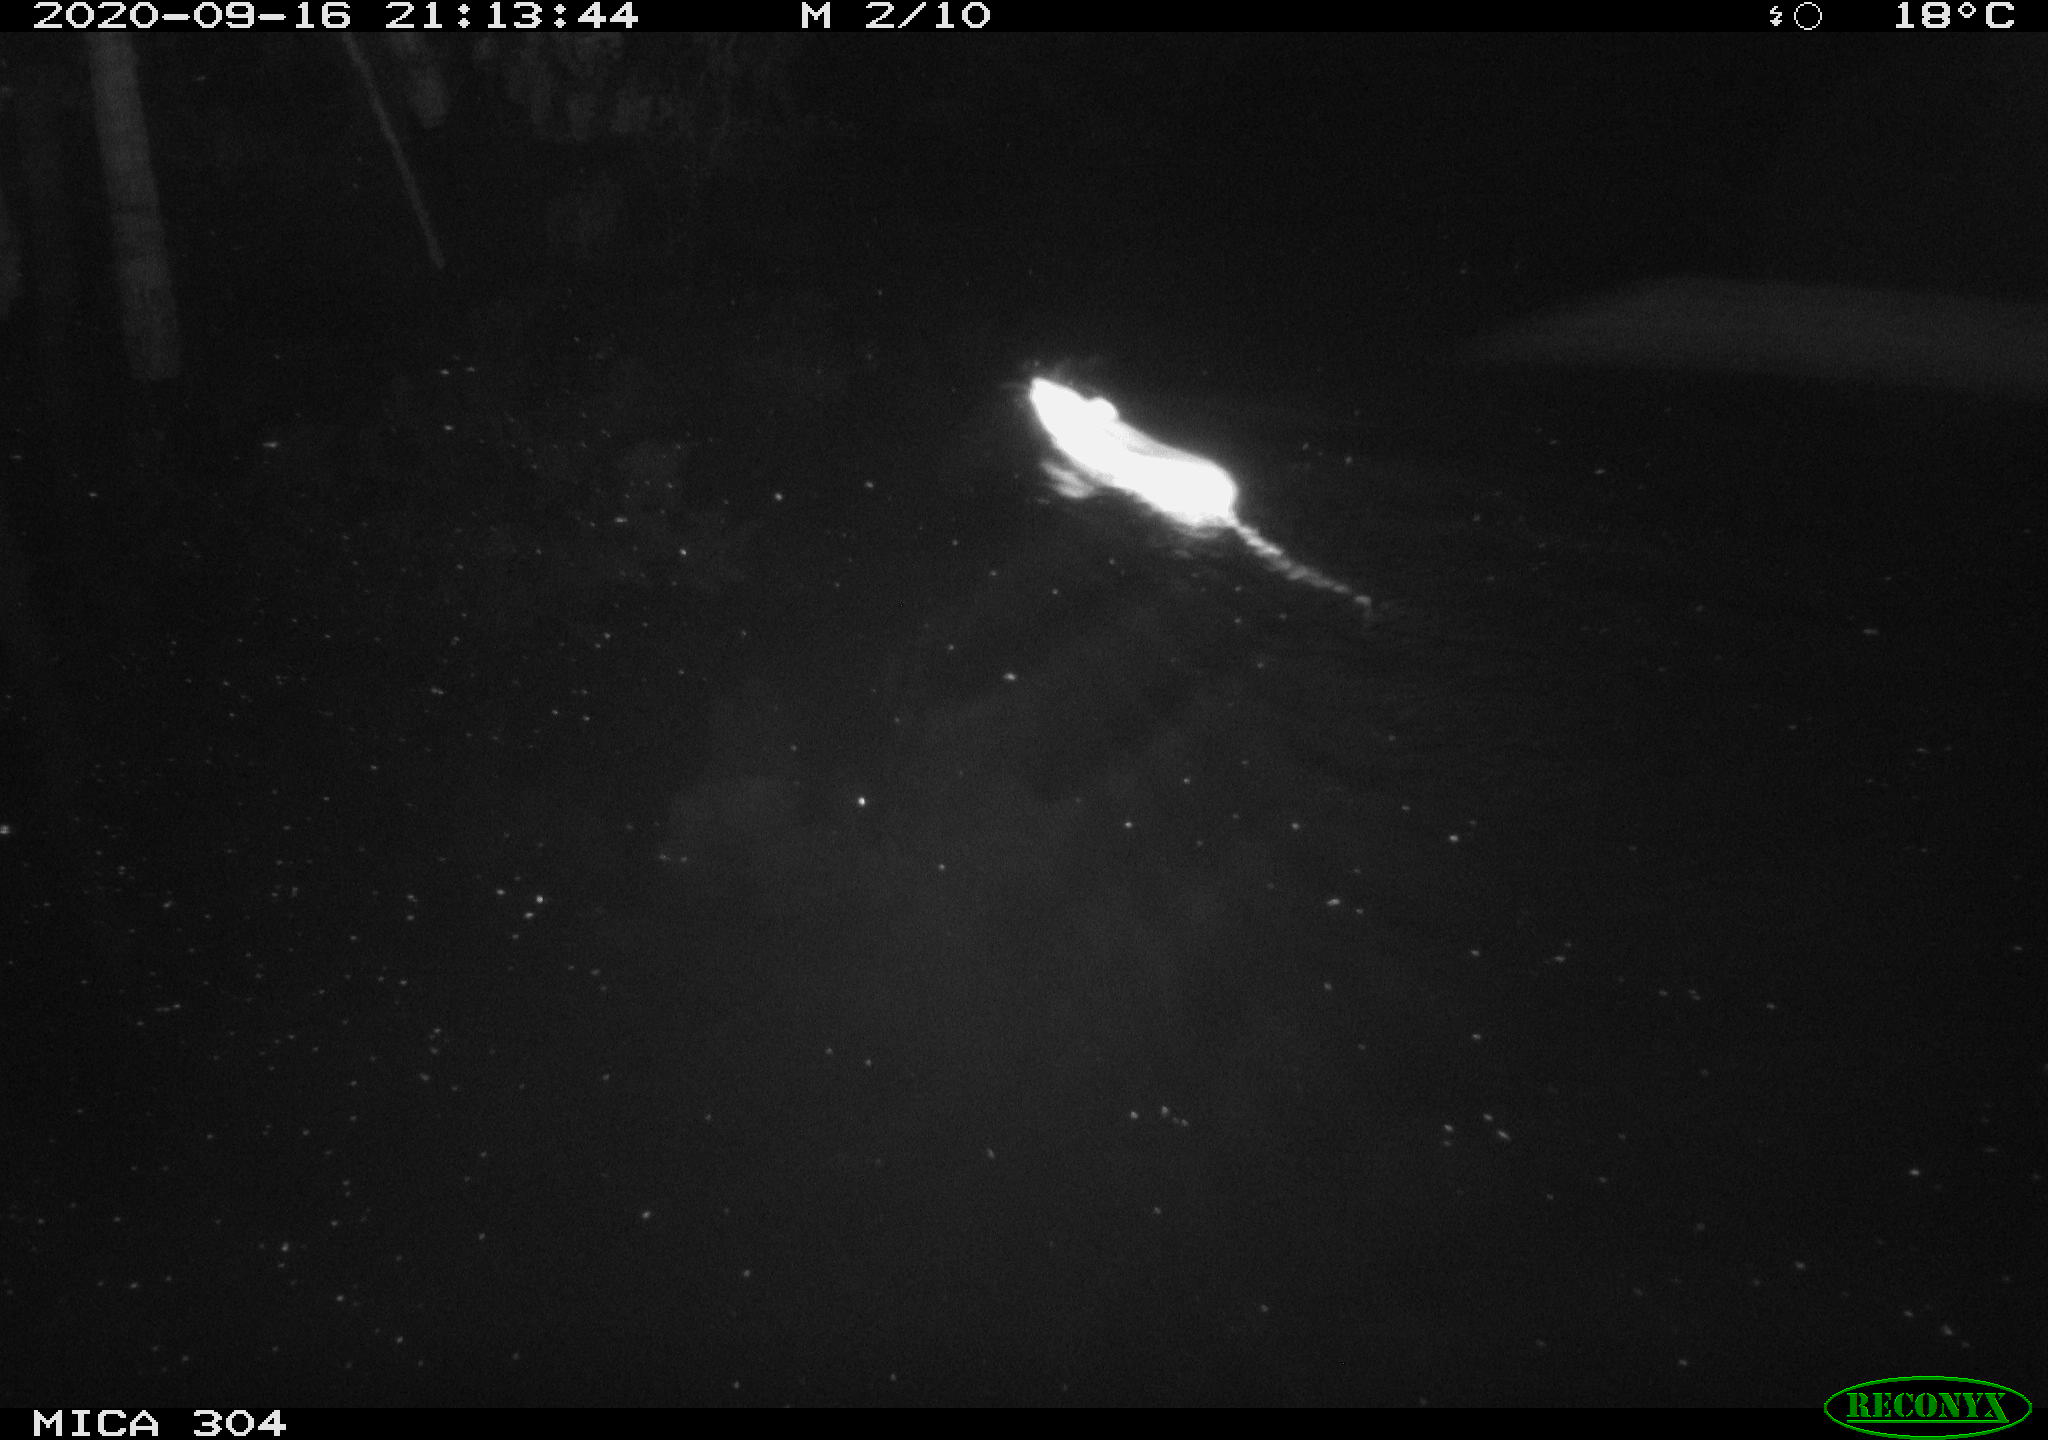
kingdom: Animalia
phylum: Chordata
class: Mammalia
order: Rodentia
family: Muridae
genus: Rattus
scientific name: Rattus norvegicus
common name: Brown rat
